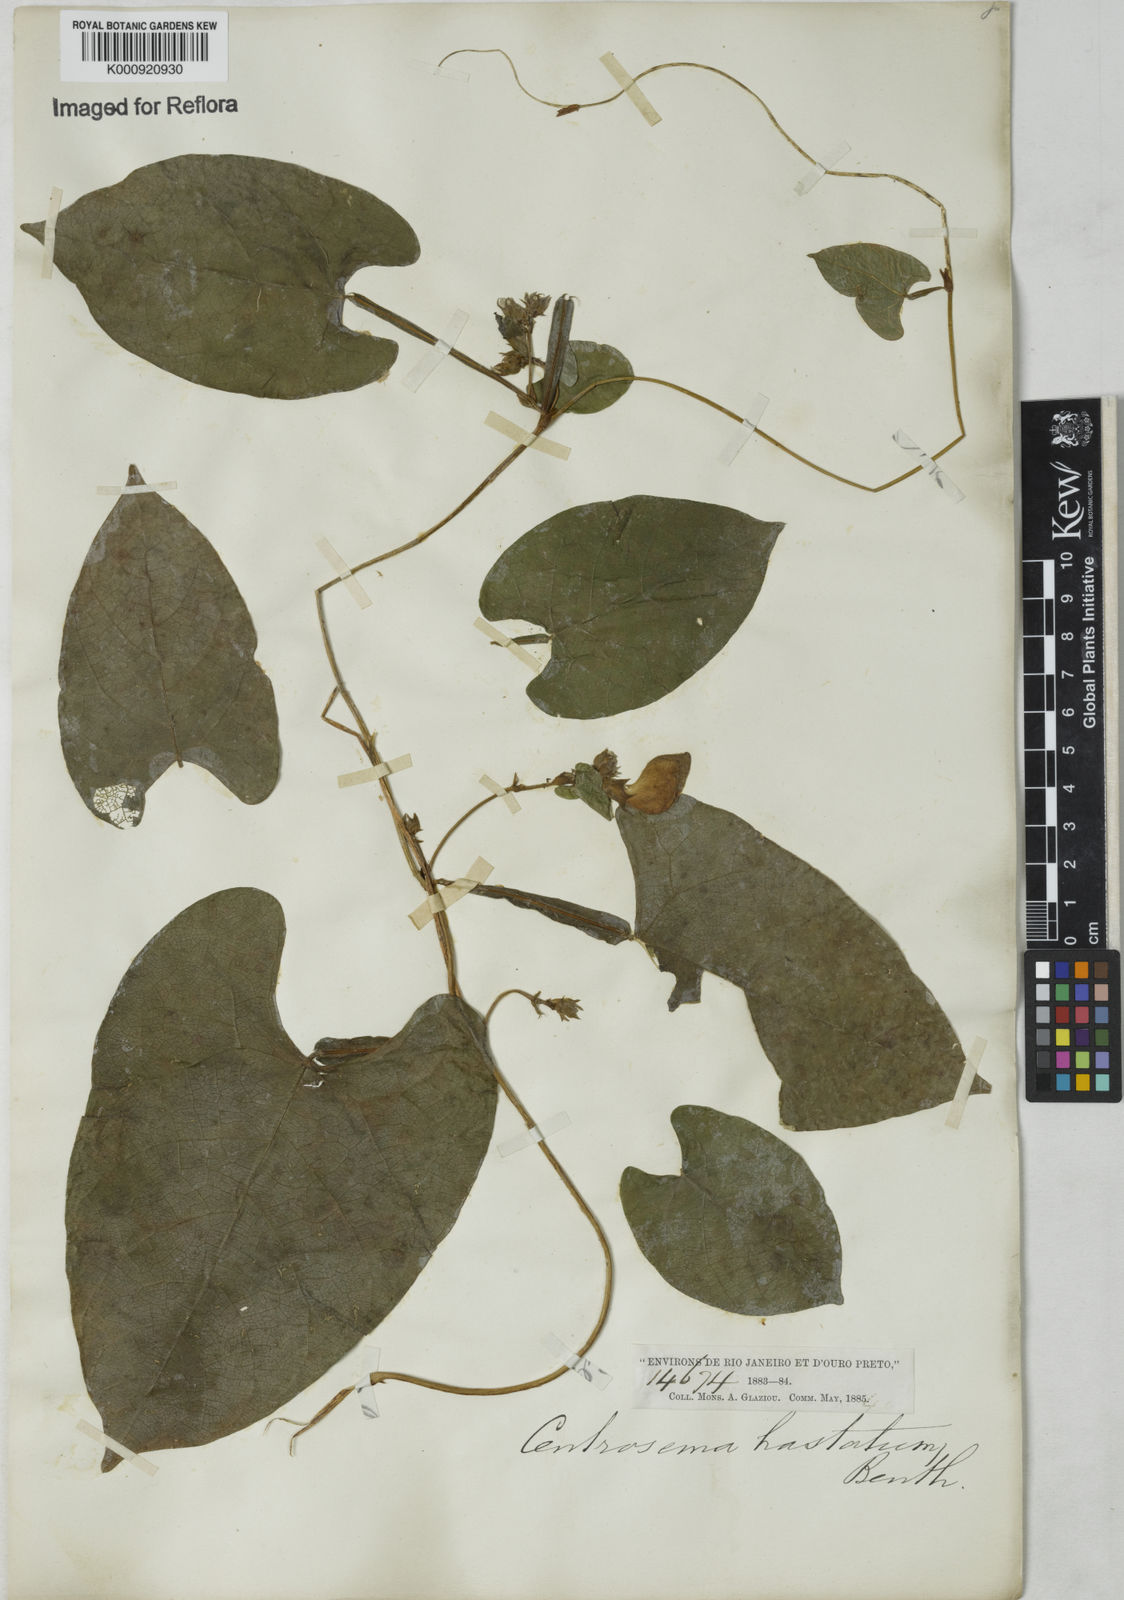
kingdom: Plantae
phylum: Tracheophyta
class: Magnoliopsida
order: Santalales
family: Santalaceae
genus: Santalum
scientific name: Santalum spicatum
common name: West australian sandalwood
